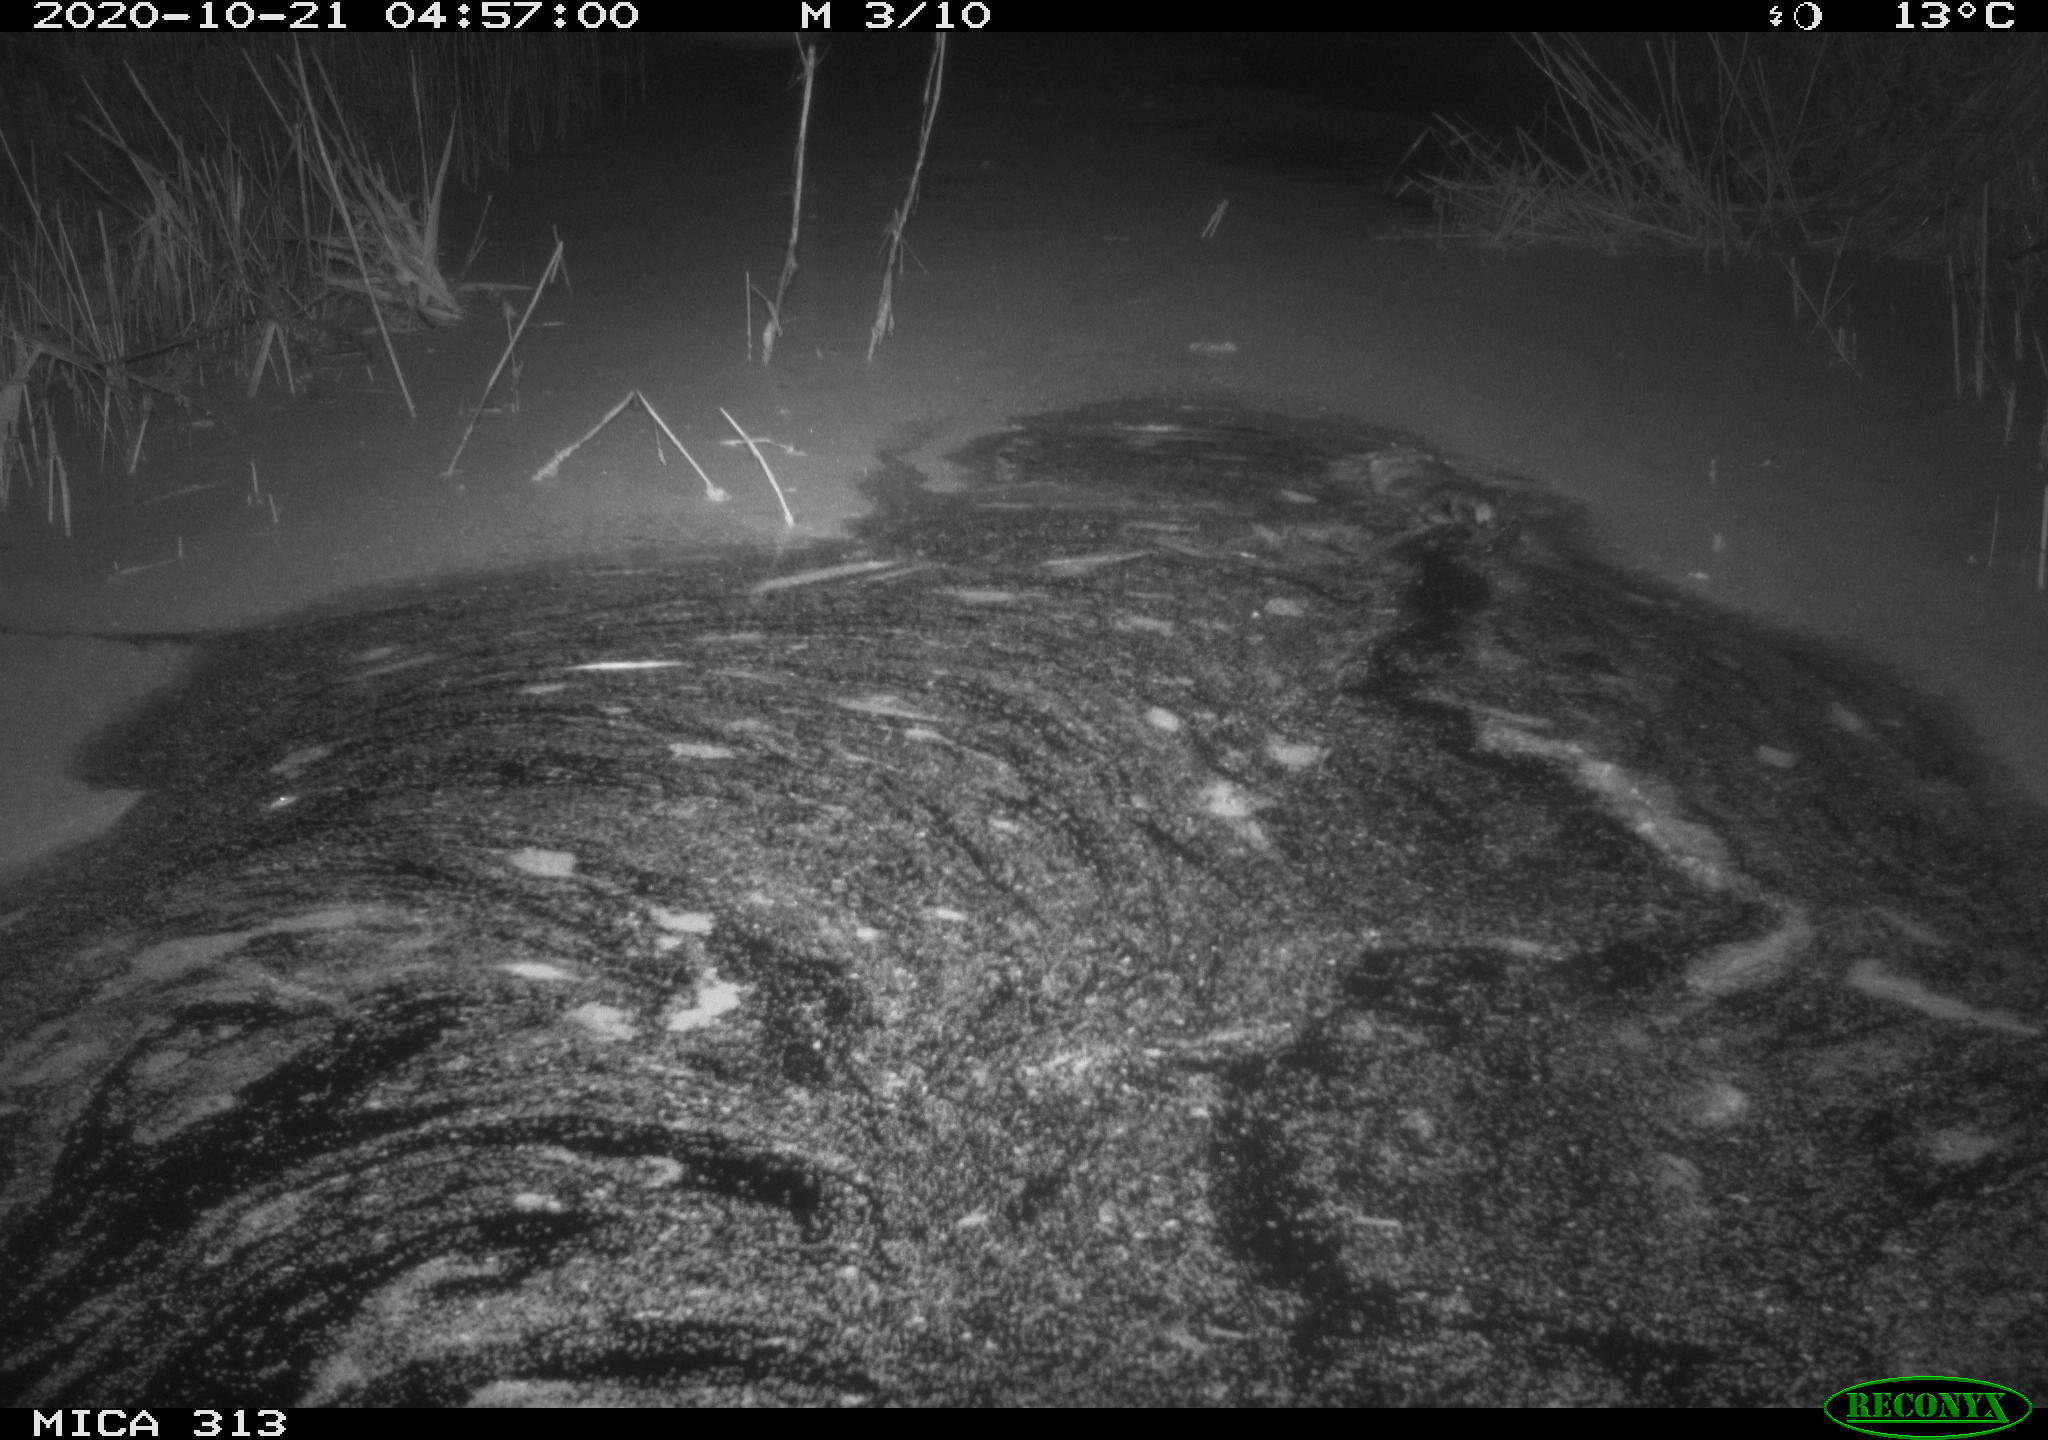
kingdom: Animalia
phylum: Chordata
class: Mammalia
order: Rodentia
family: Cricetidae
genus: Ondatra
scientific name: Ondatra zibethicus
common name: Muskrat
